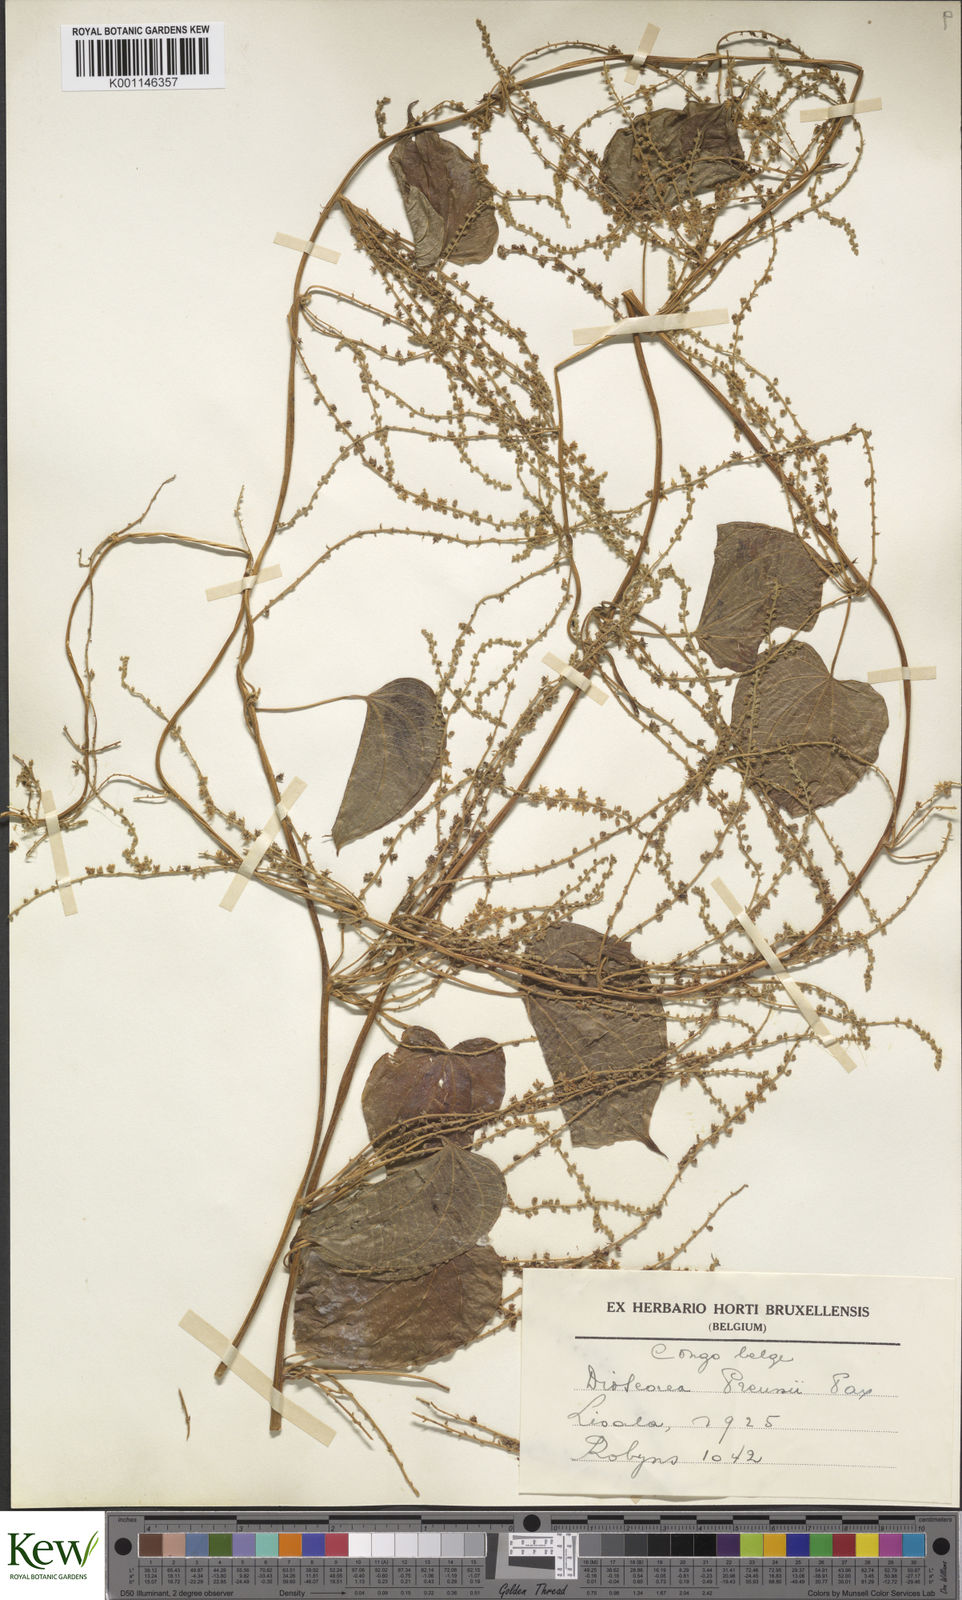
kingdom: Plantae
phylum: Tracheophyta
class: Liliopsida
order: Dioscoreales
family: Dioscoreaceae
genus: Dioscorea
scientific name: Dioscorea preussii
